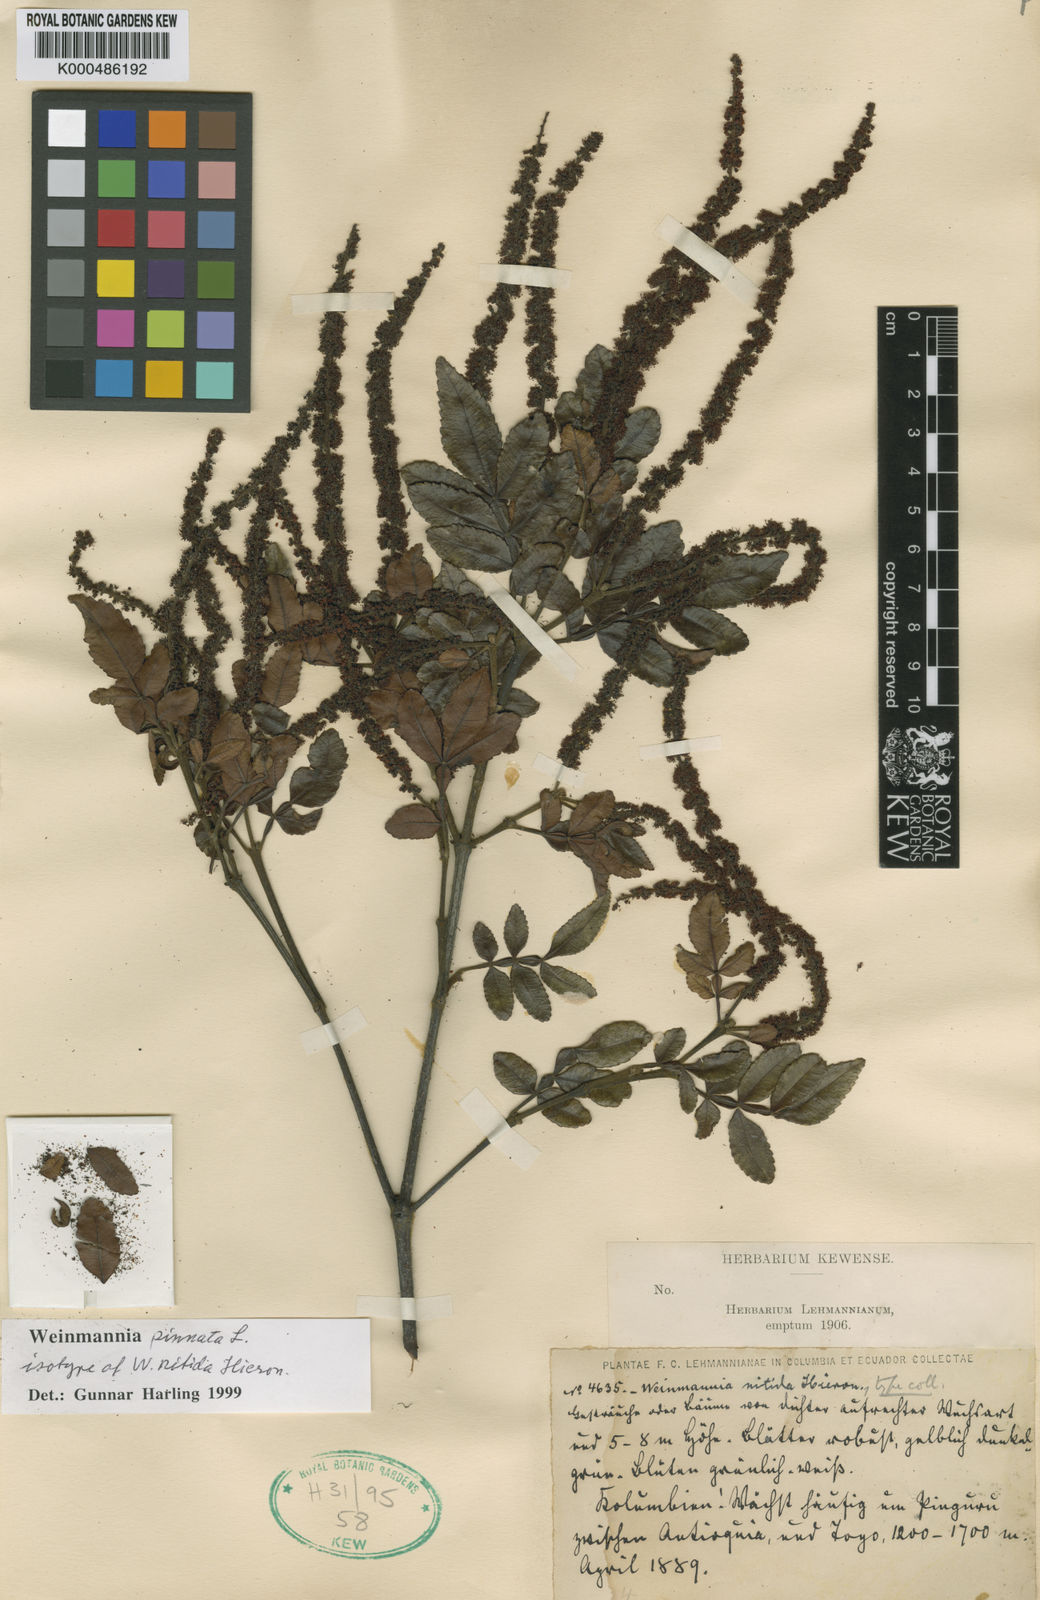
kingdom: Plantae
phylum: Tracheophyta
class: Magnoliopsida
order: Oxalidales
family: Cunoniaceae
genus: Weinmannia
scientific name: Weinmannia pinnata
